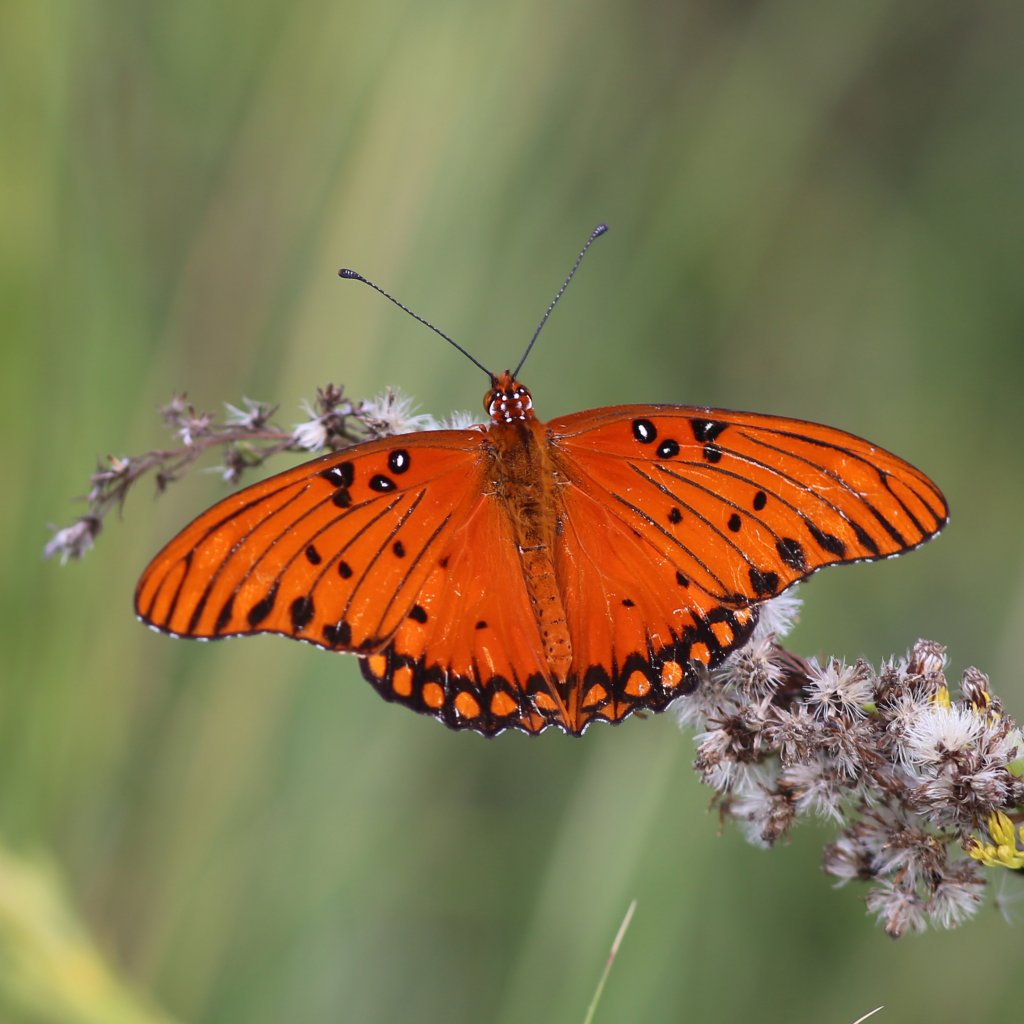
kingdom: Animalia
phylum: Arthropoda
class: Insecta
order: Lepidoptera
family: Nymphalidae
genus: Dione
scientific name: Dione vanillae
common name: Gulf Fritillary
